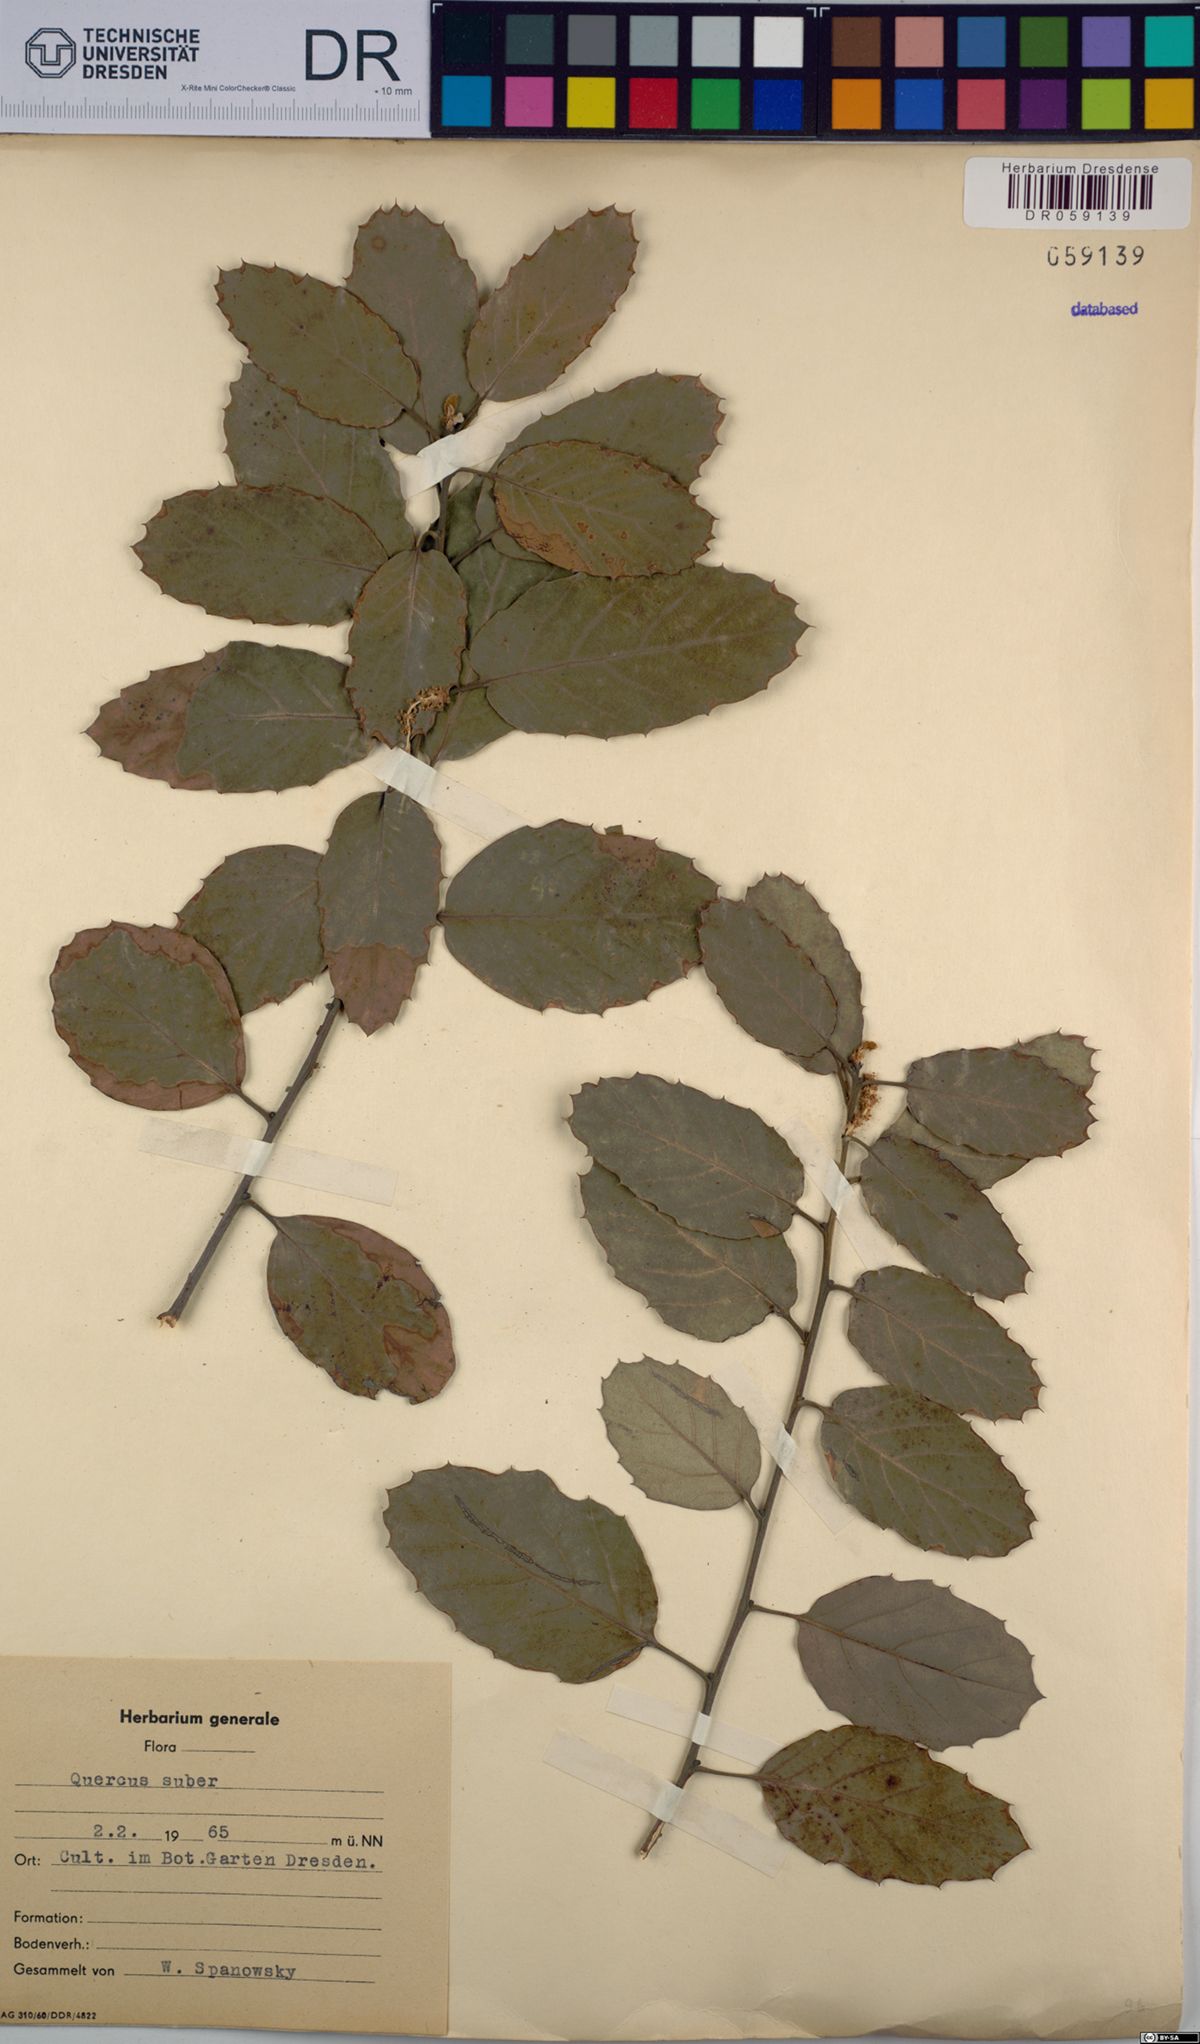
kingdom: Plantae
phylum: Tracheophyta
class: Magnoliopsida
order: Fagales
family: Fagaceae
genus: Quercus
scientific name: Quercus suber
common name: Cork oak
